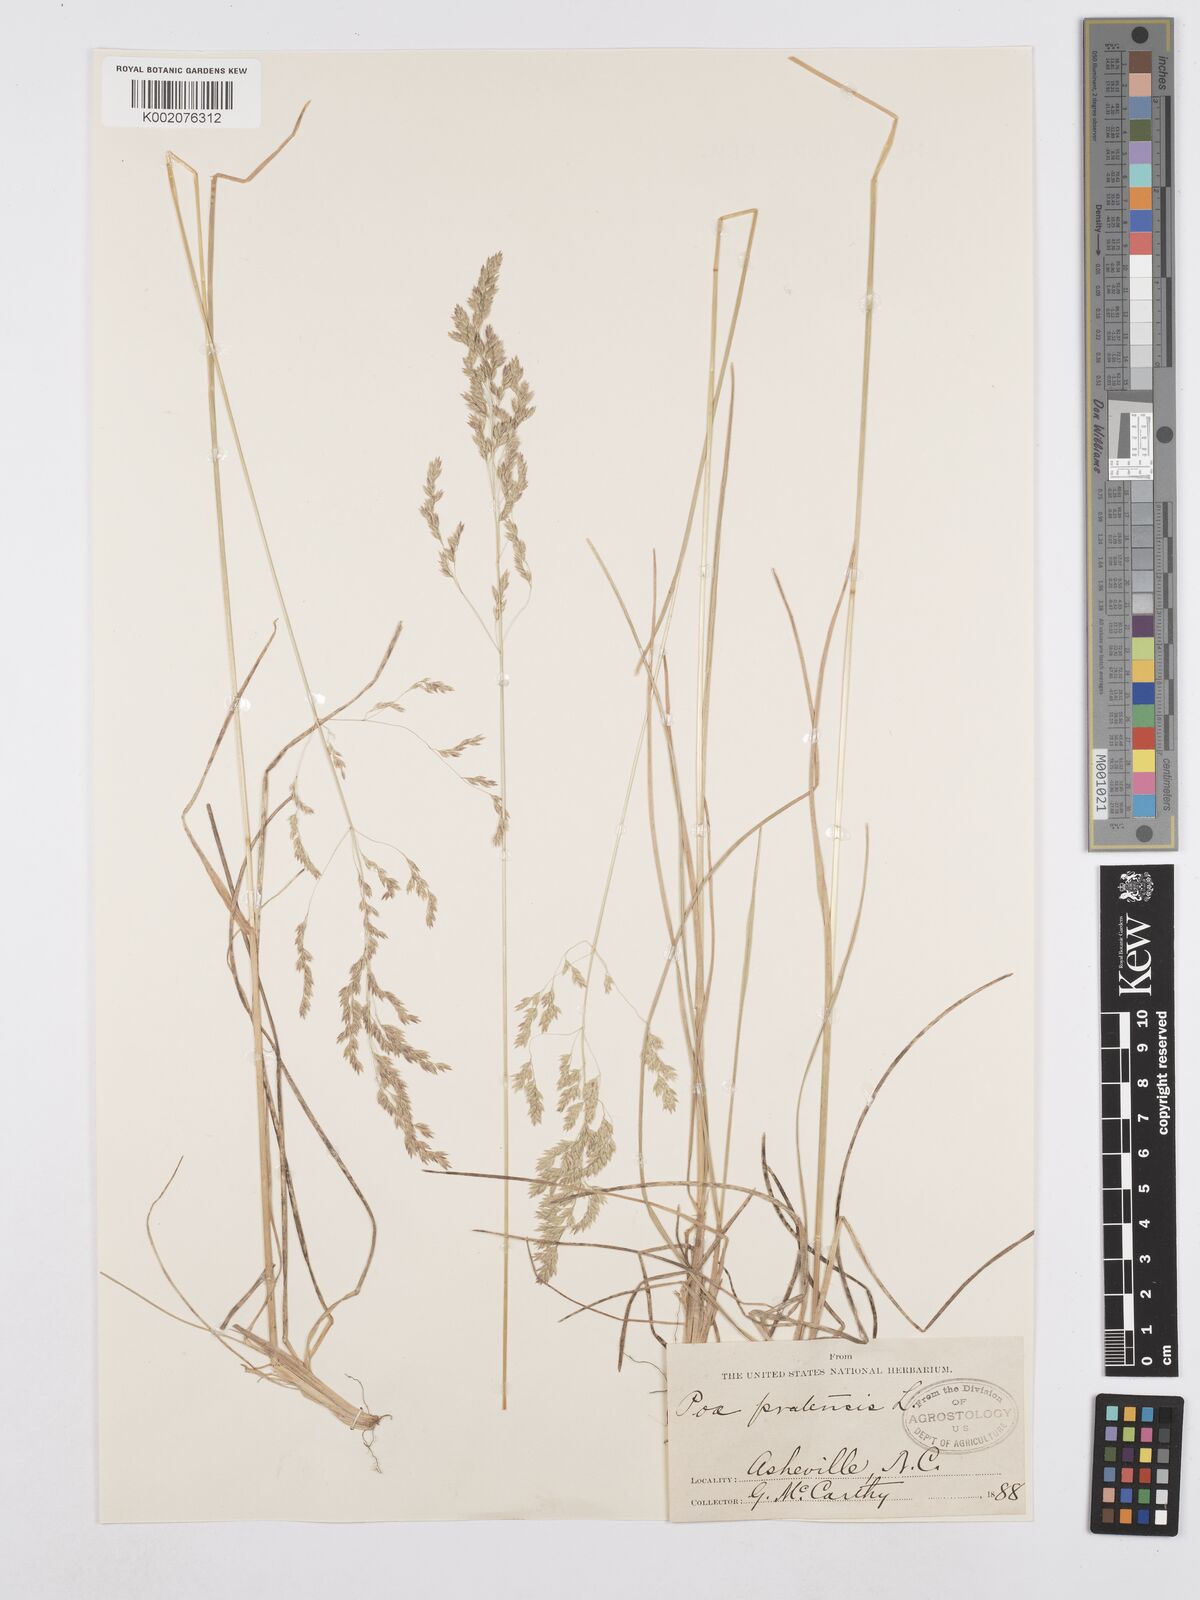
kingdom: Plantae
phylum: Tracheophyta
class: Liliopsida
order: Poales
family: Poaceae
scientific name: Poaceae
